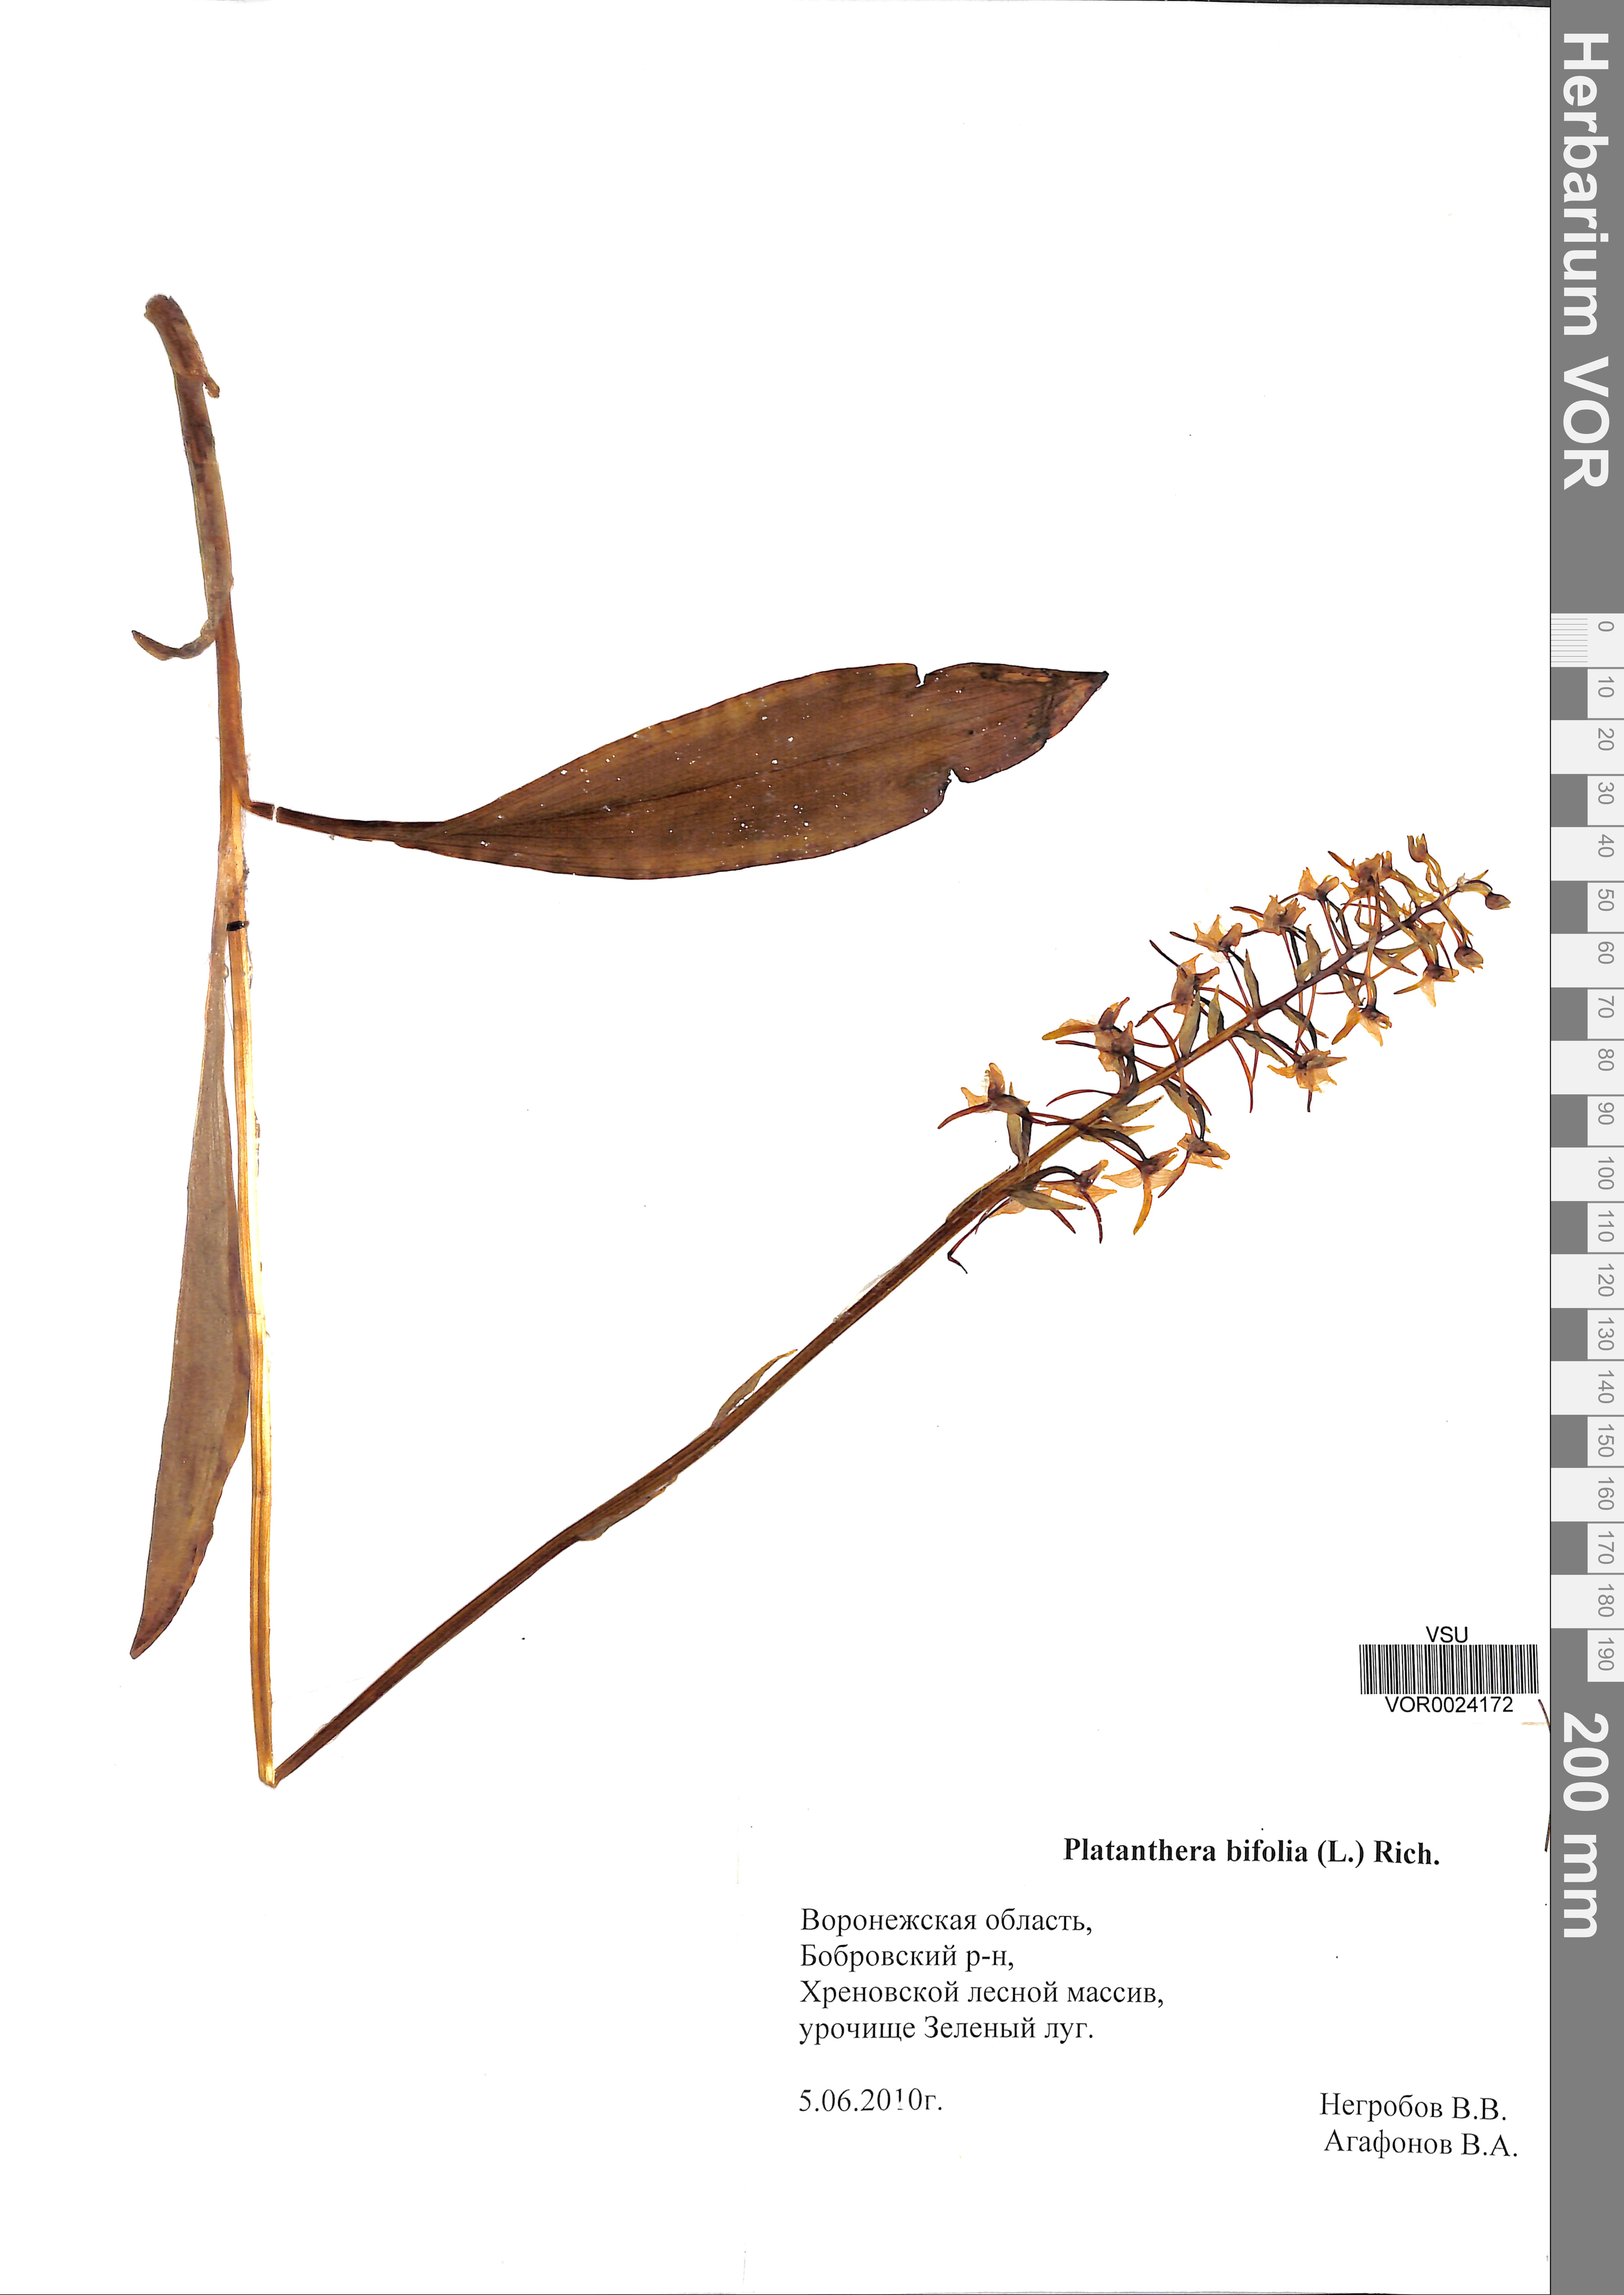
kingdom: Plantae
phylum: Tracheophyta
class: Liliopsida
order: Asparagales
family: Orchidaceae
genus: Platanthera
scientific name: Platanthera bifolia
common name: Lesser butterfly-orchid
